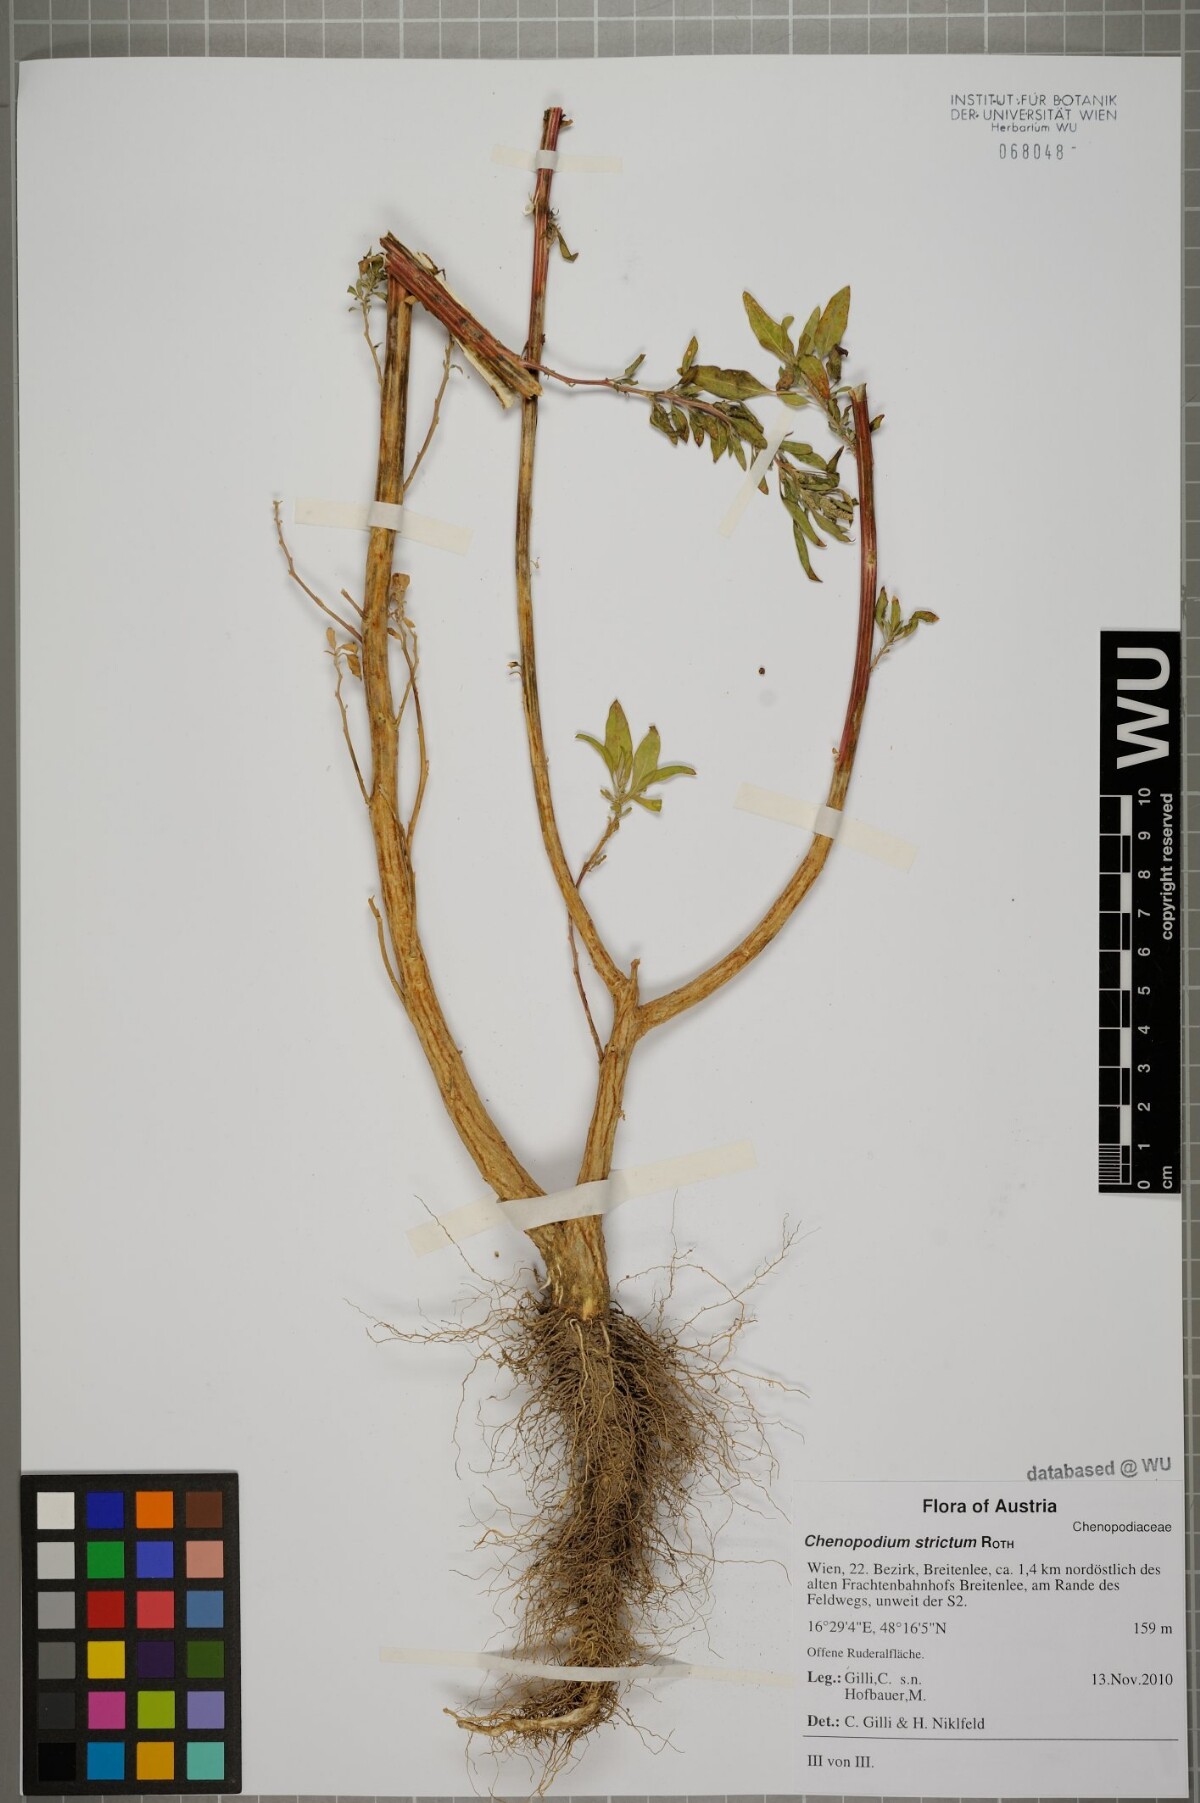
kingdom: Plantae
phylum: Tracheophyta
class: Magnoliopsida
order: Caryophyllales
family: Amaranthaceae
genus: Chenopodium
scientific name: Chenopodium album
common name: Fat-hen
